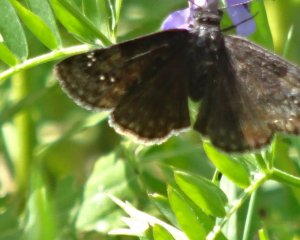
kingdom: Animalia
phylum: Arthropoda
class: Insecta
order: Lepidoptera
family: Hesperiidae
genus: Gesta
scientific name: Gesta
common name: Columbine Duskywing
